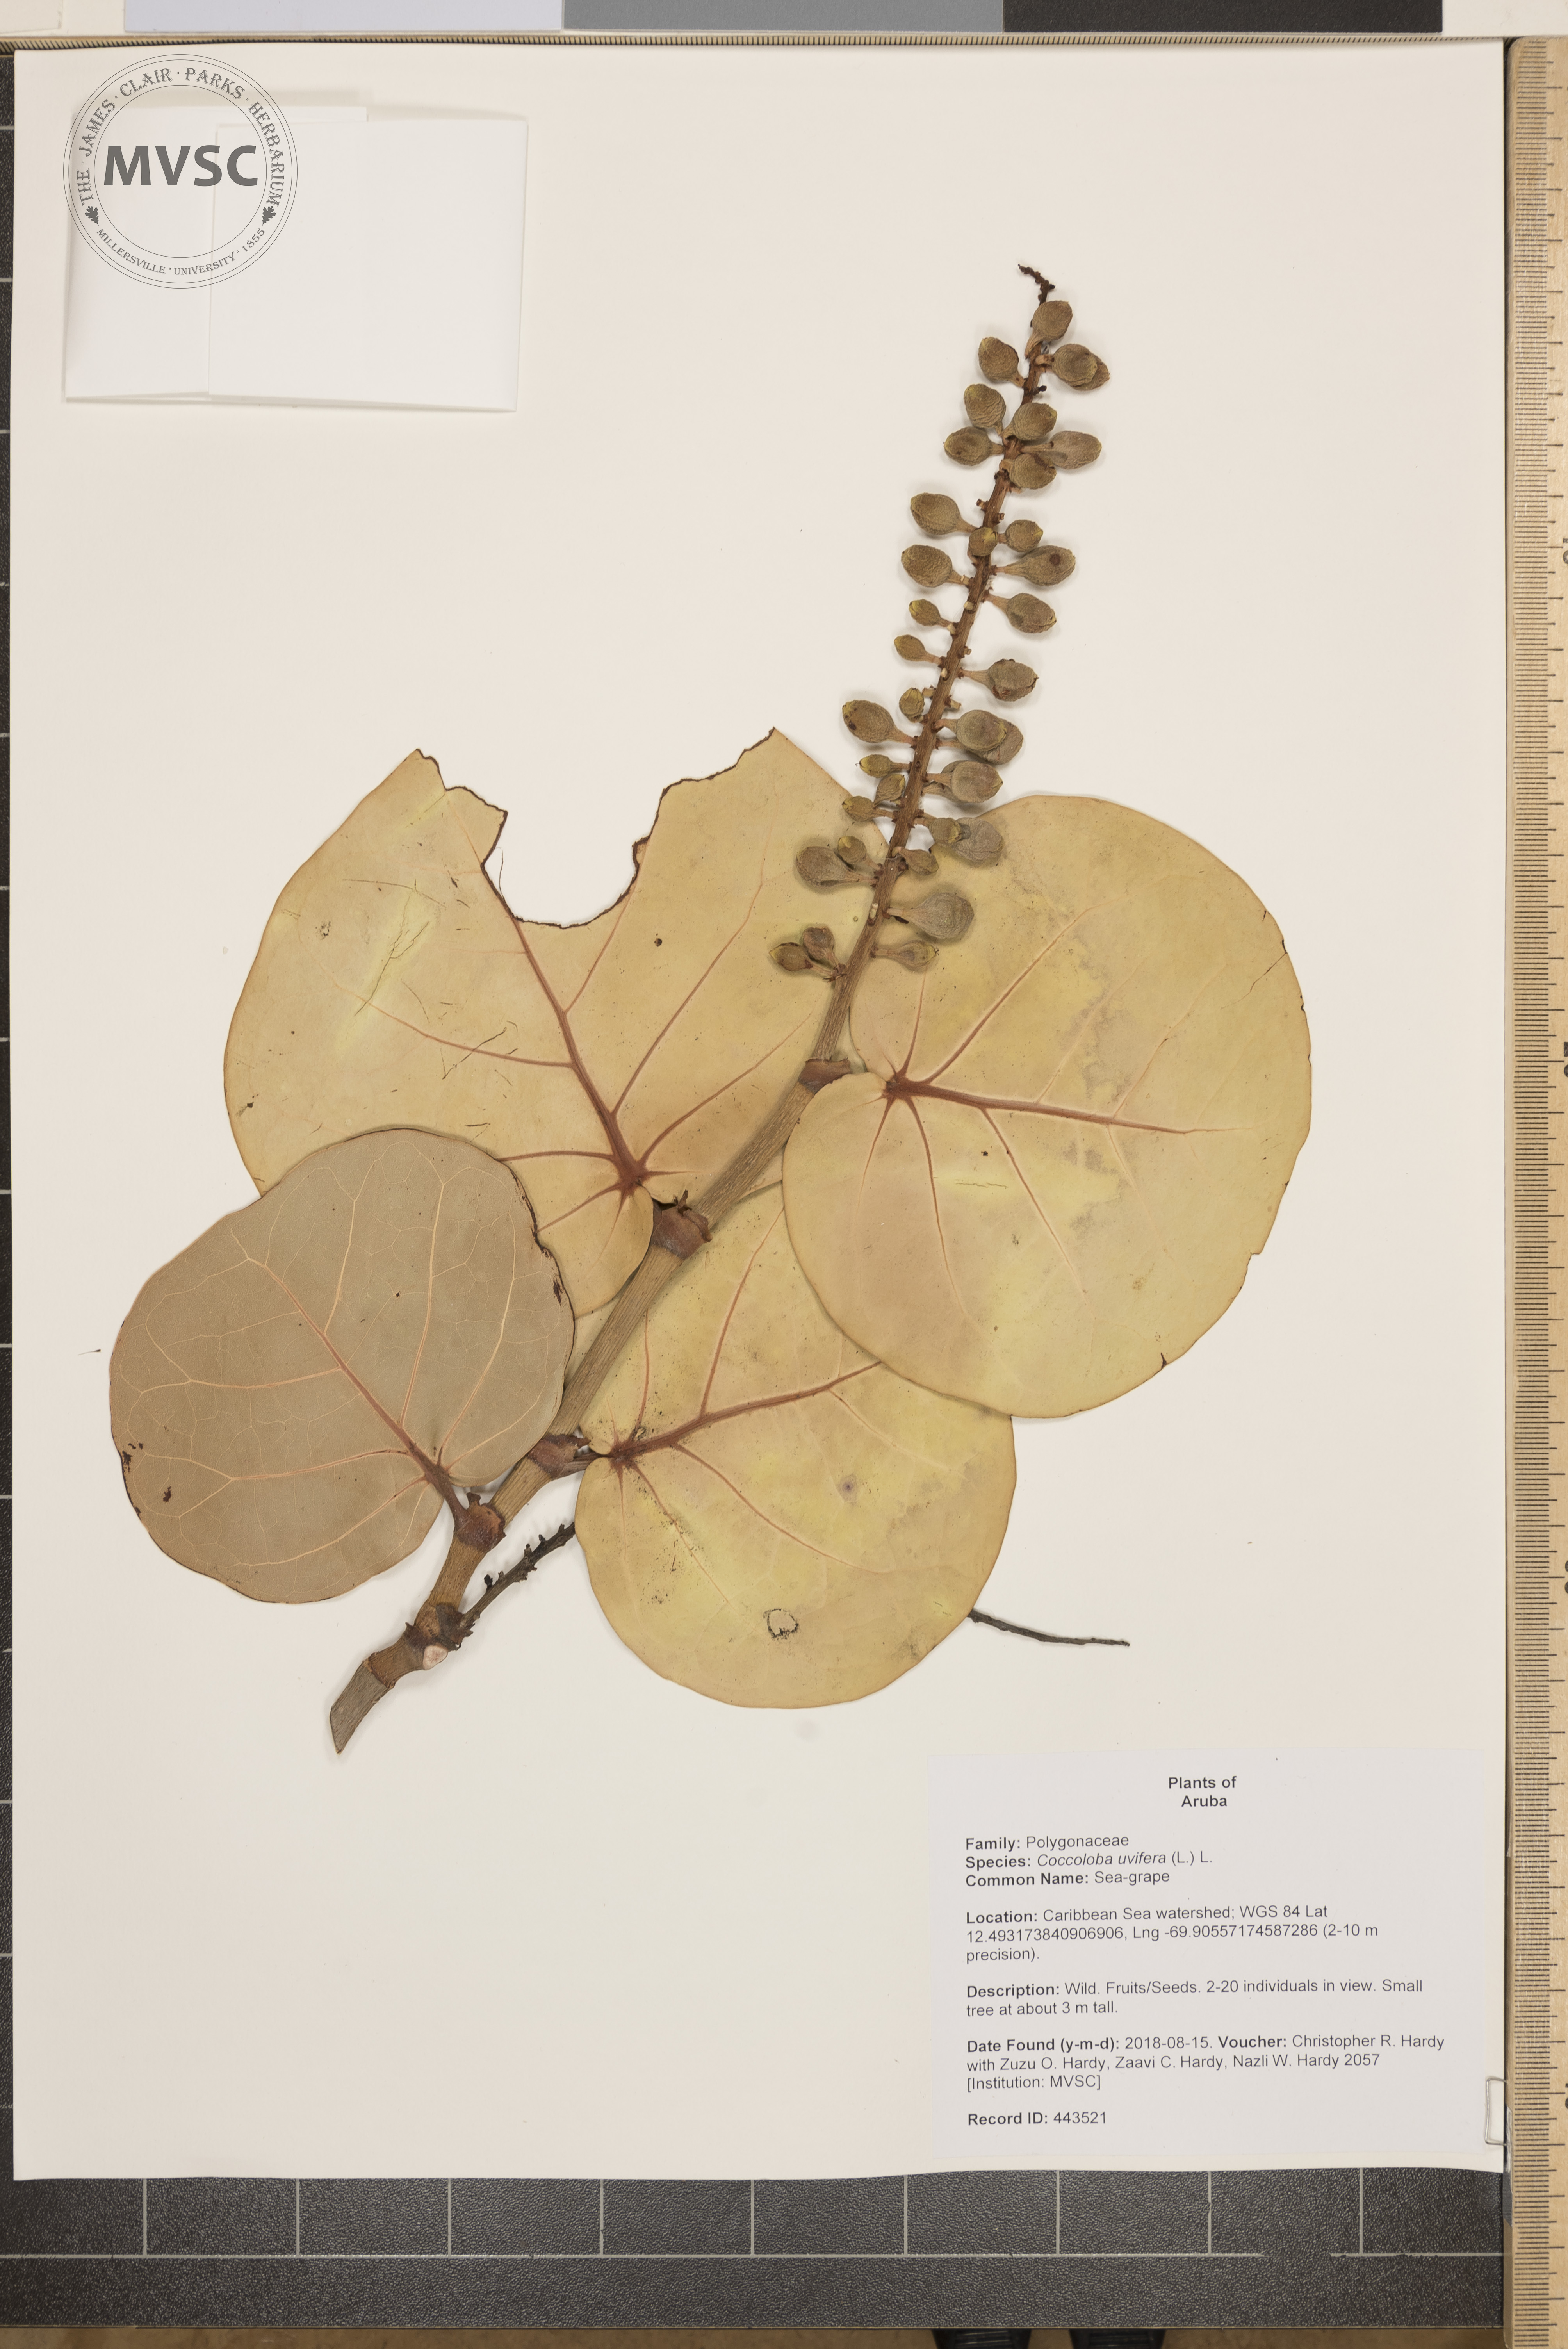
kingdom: Plantae
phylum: Tracheophyta
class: Magnoliopsida
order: Caryophyllales
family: Polygonaceae
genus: Coccoloba
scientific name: Coccoloba uvifera
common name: Sea-grape
